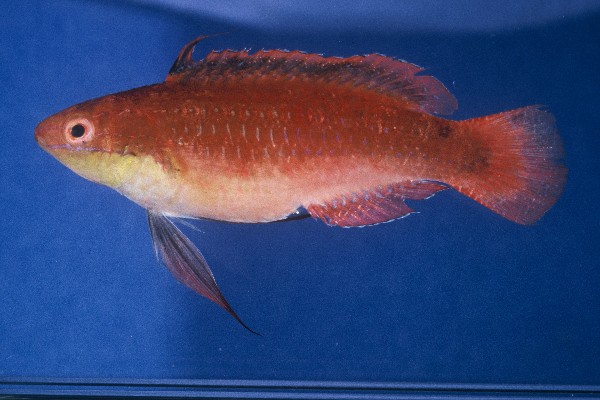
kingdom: Animalia
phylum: Chordata
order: Perciformes
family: Labridae
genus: Cirrhilabrus
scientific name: Cirrhilabrus rubriventralis
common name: Social wrasse
